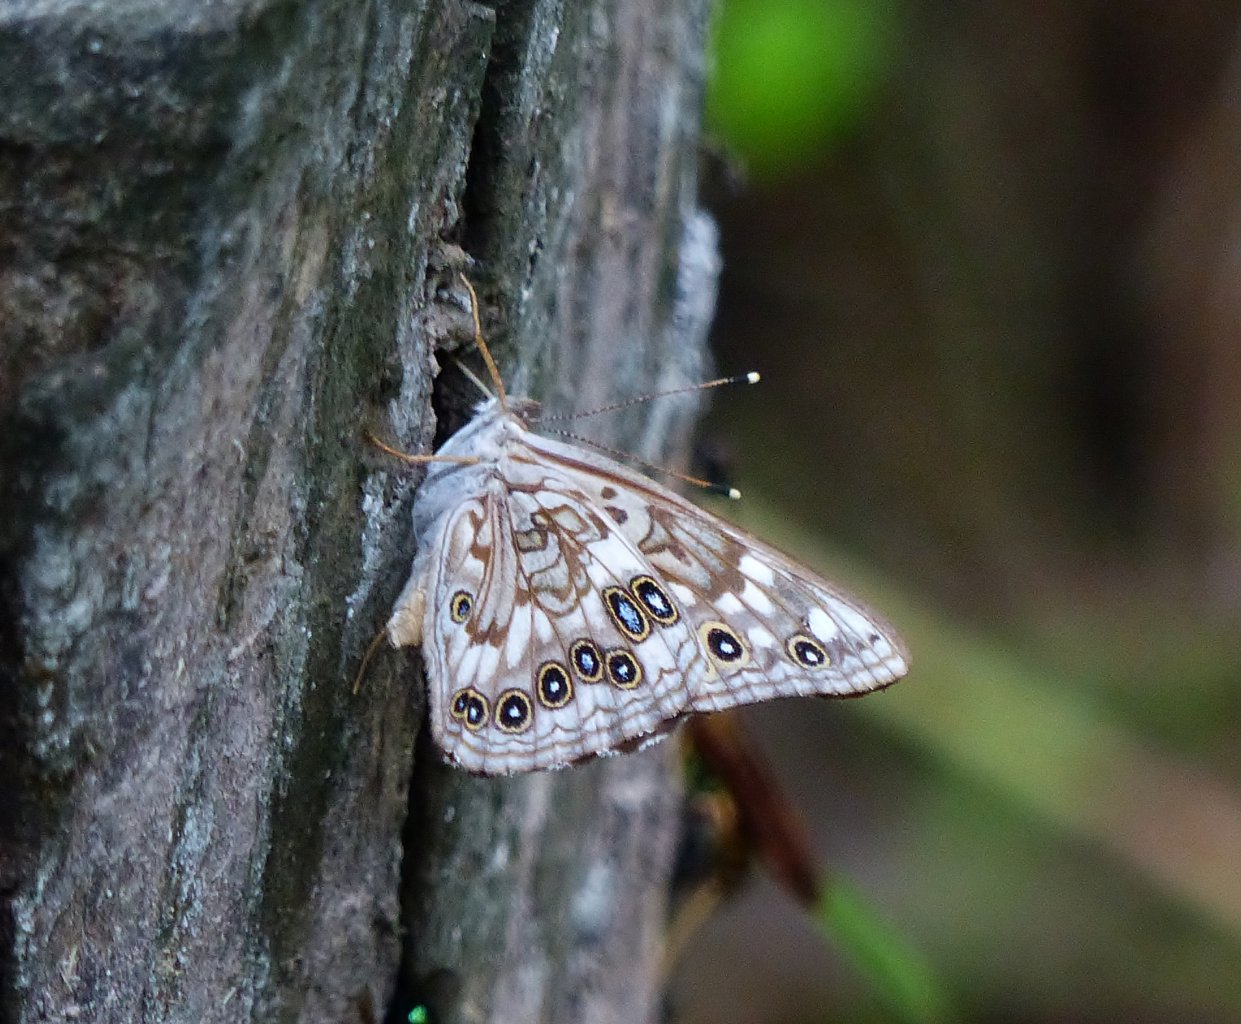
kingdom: Animalia
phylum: Arthropoda
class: Insecta
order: Lepidoptera
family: Nymphalidae
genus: Asterocampa
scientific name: Asterocampa celtis
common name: Hackberry Emperor
